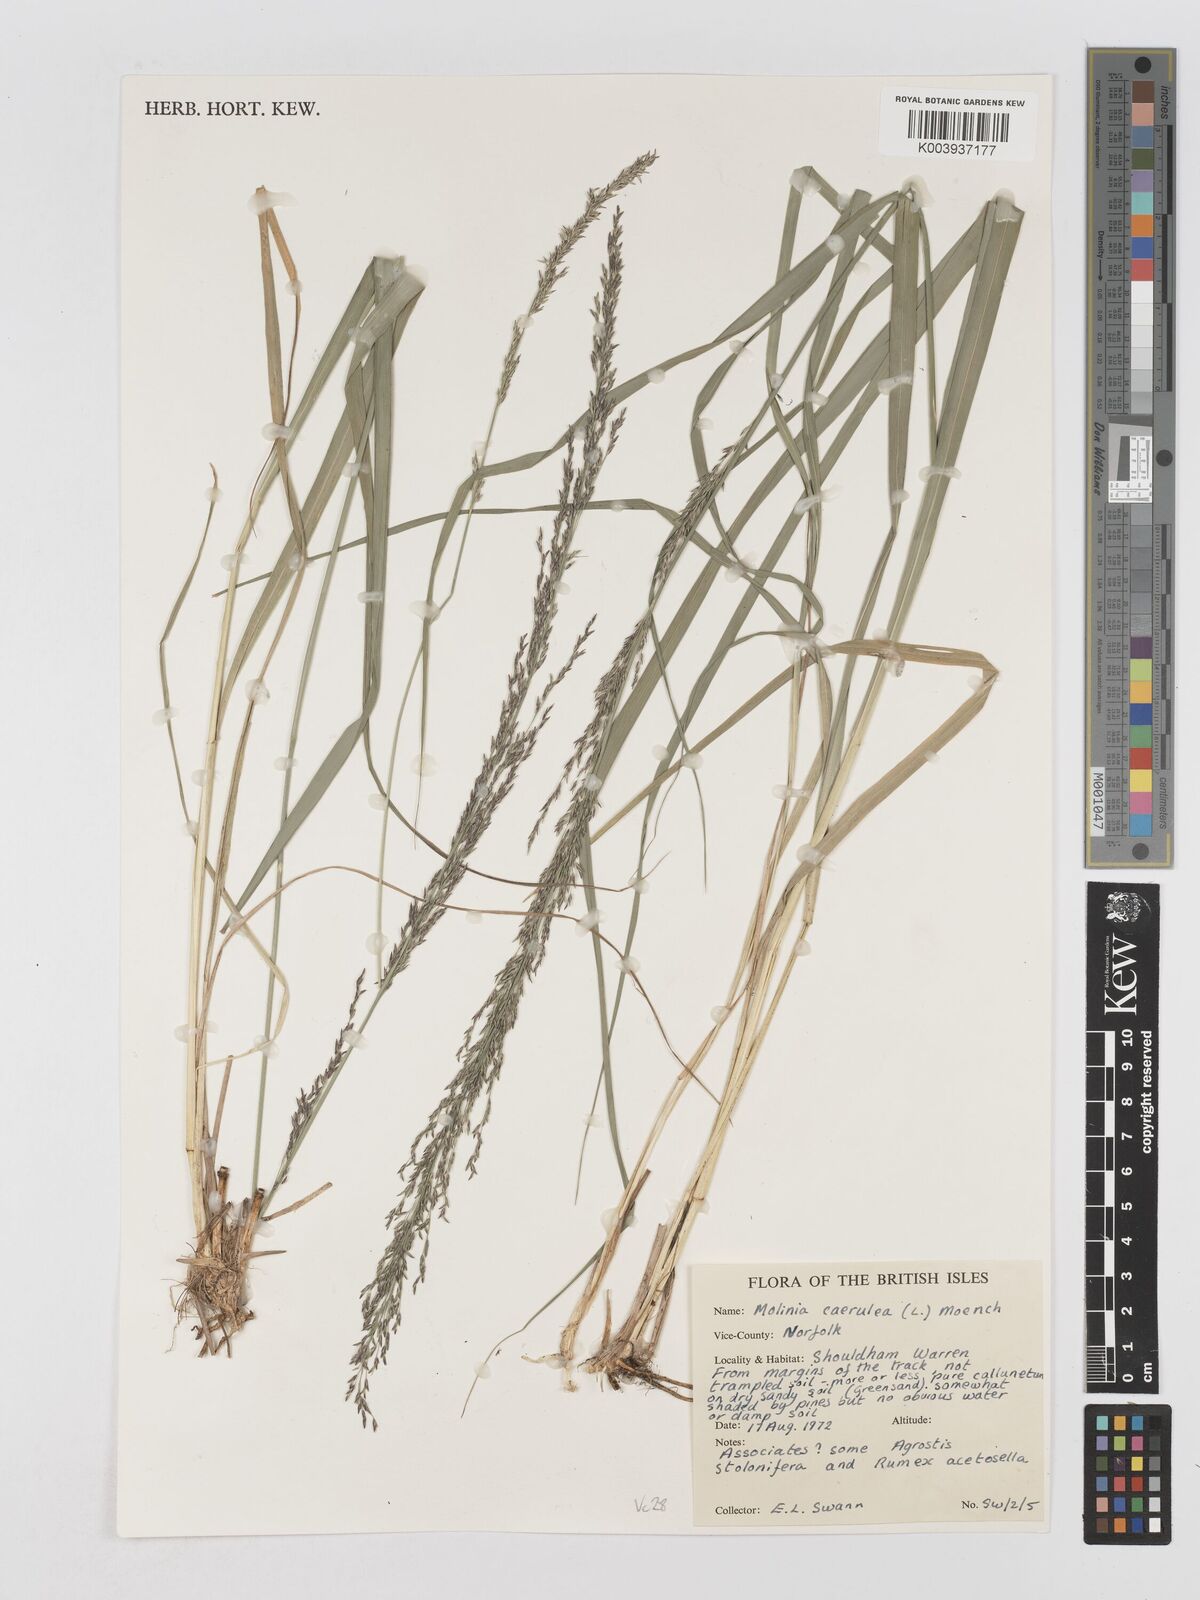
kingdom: Plantae
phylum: Tracheophyta
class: Liliopsida
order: Poales
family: Poaceae
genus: Molinia
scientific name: Molinia caerulea
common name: Purple moor-grass
